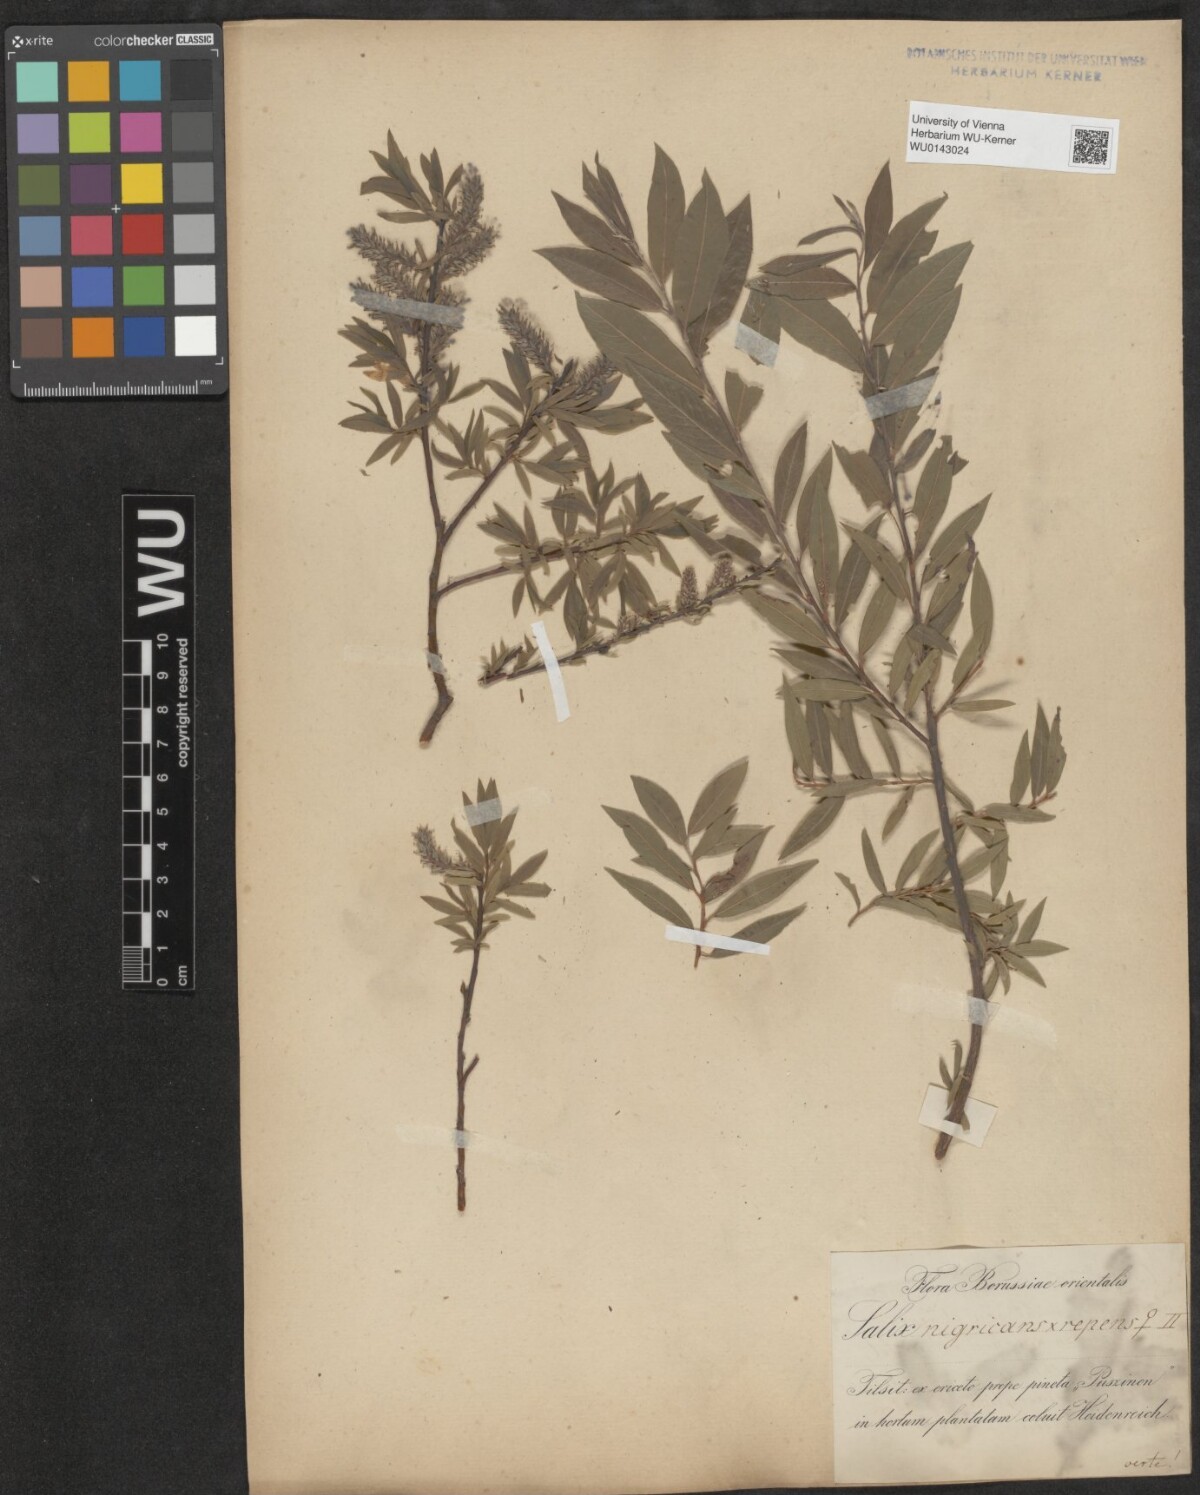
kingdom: Plantae
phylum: Tracheophyta
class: Magnoliopsida
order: Malpighiales
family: Salicaceae
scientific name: Salicaceae
